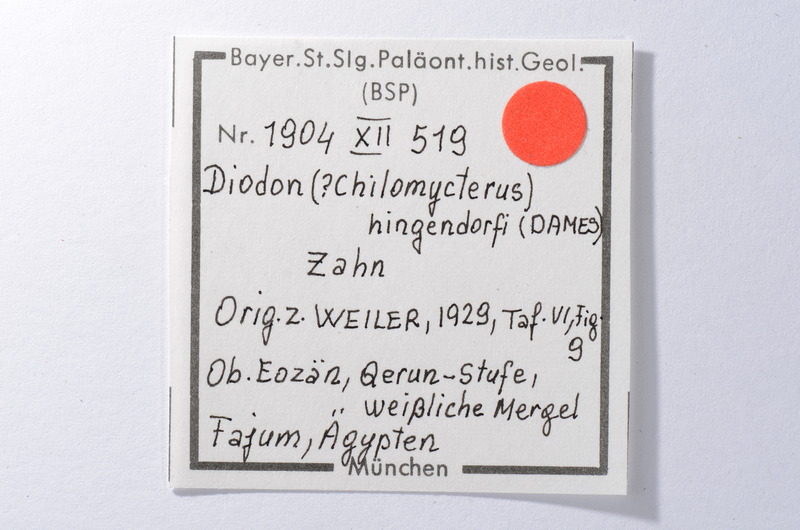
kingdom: Animalia
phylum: Chordata
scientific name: Chordata
